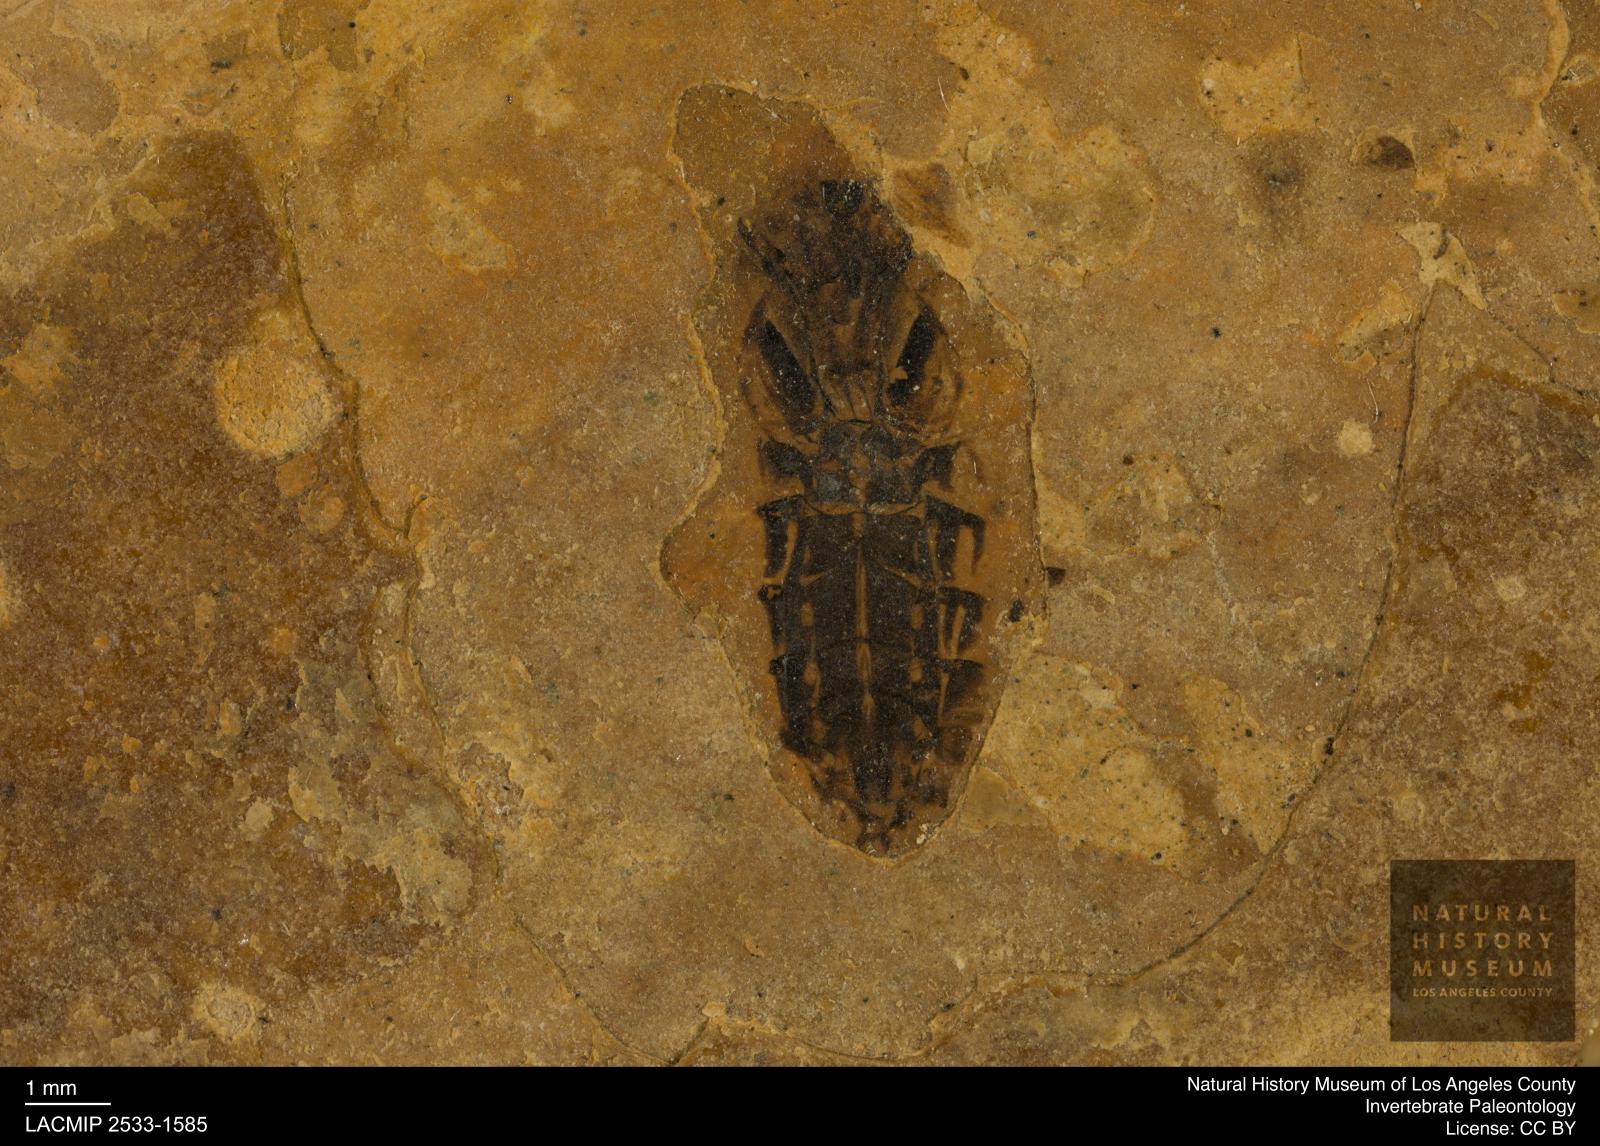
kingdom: Animalia
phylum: Arthropoda
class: Insecta
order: Hemiptera
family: Notonectidae
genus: Notonecta
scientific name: Notonecta
